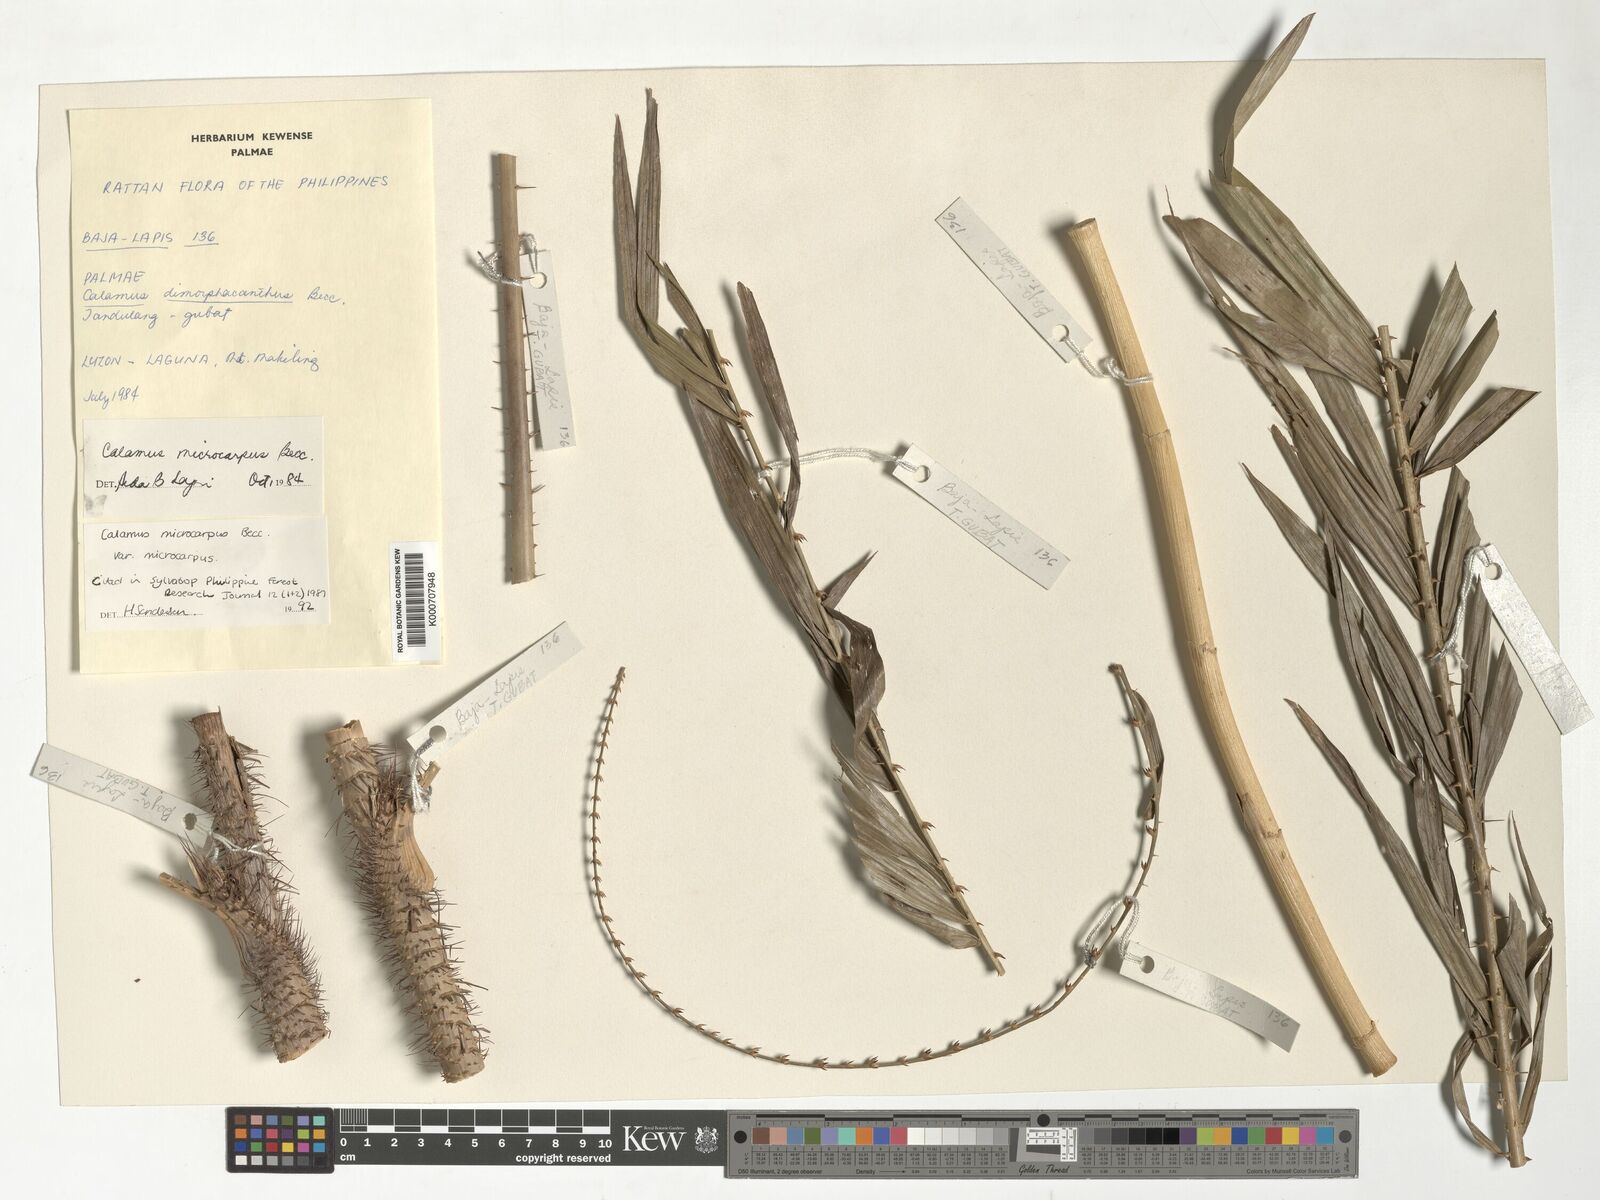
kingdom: Plantae
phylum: Tracheophyta
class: Liliopsida
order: Arecales
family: Arecaceae
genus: Calamus
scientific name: Calamus siphonospathus
